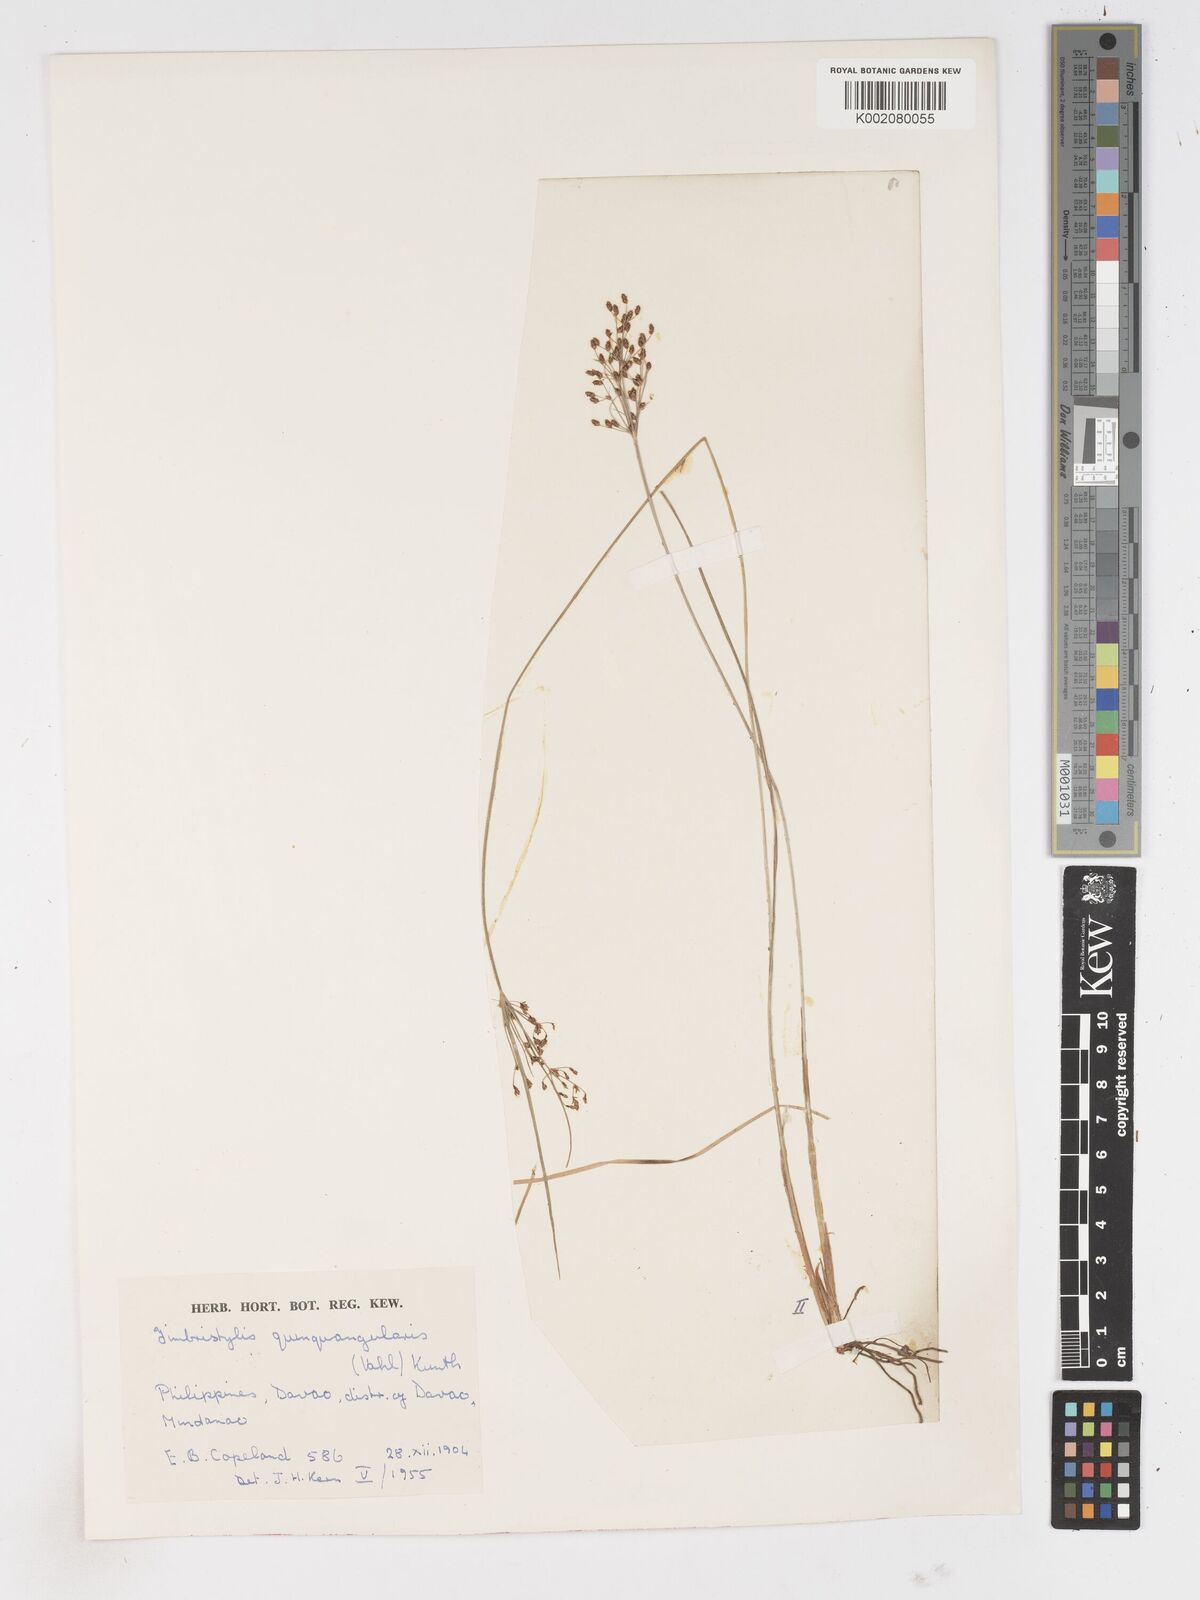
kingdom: Plantae
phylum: Tracheophyta
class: Liliopsida
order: Poales
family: Cyperaceae
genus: Fimbristylis
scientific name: Fimbristylis quinquangularis
